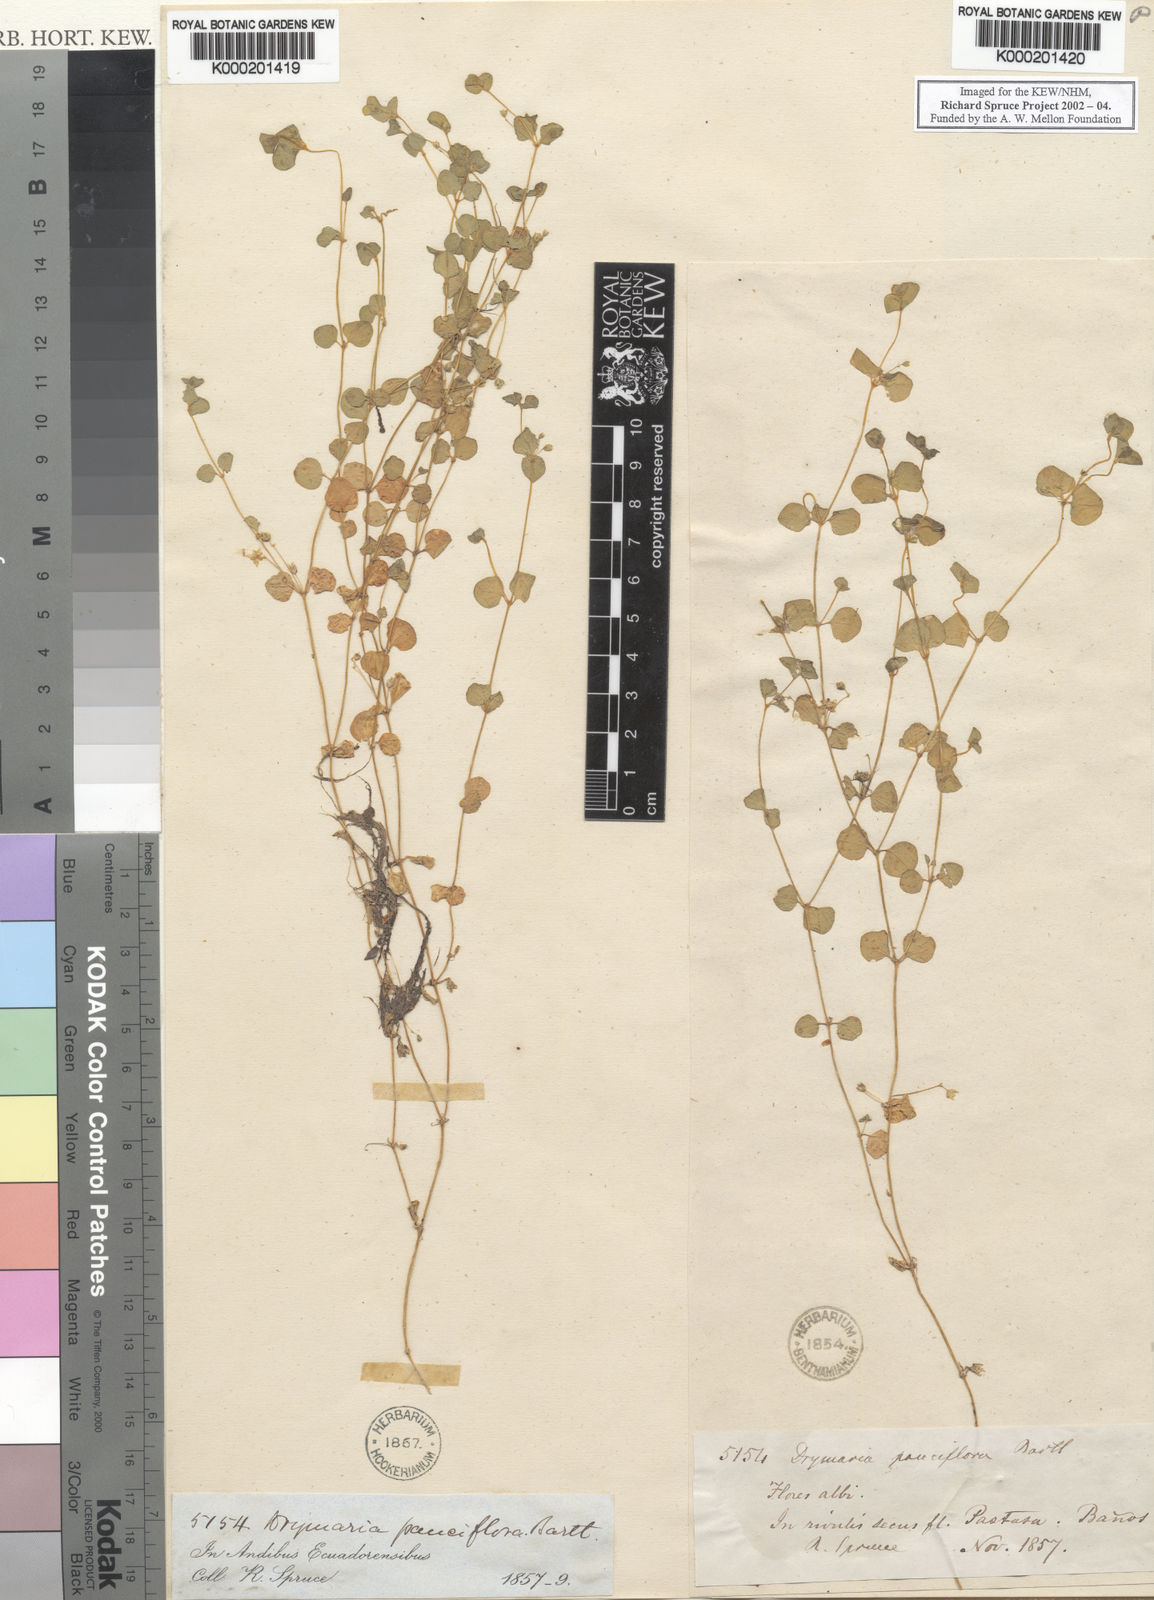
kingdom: Plantae
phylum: Tracheophyta
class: Magnoliopsida
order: Caryophyllales
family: Caryophyllaceae
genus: Drymaria
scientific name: Drymaria villosa
